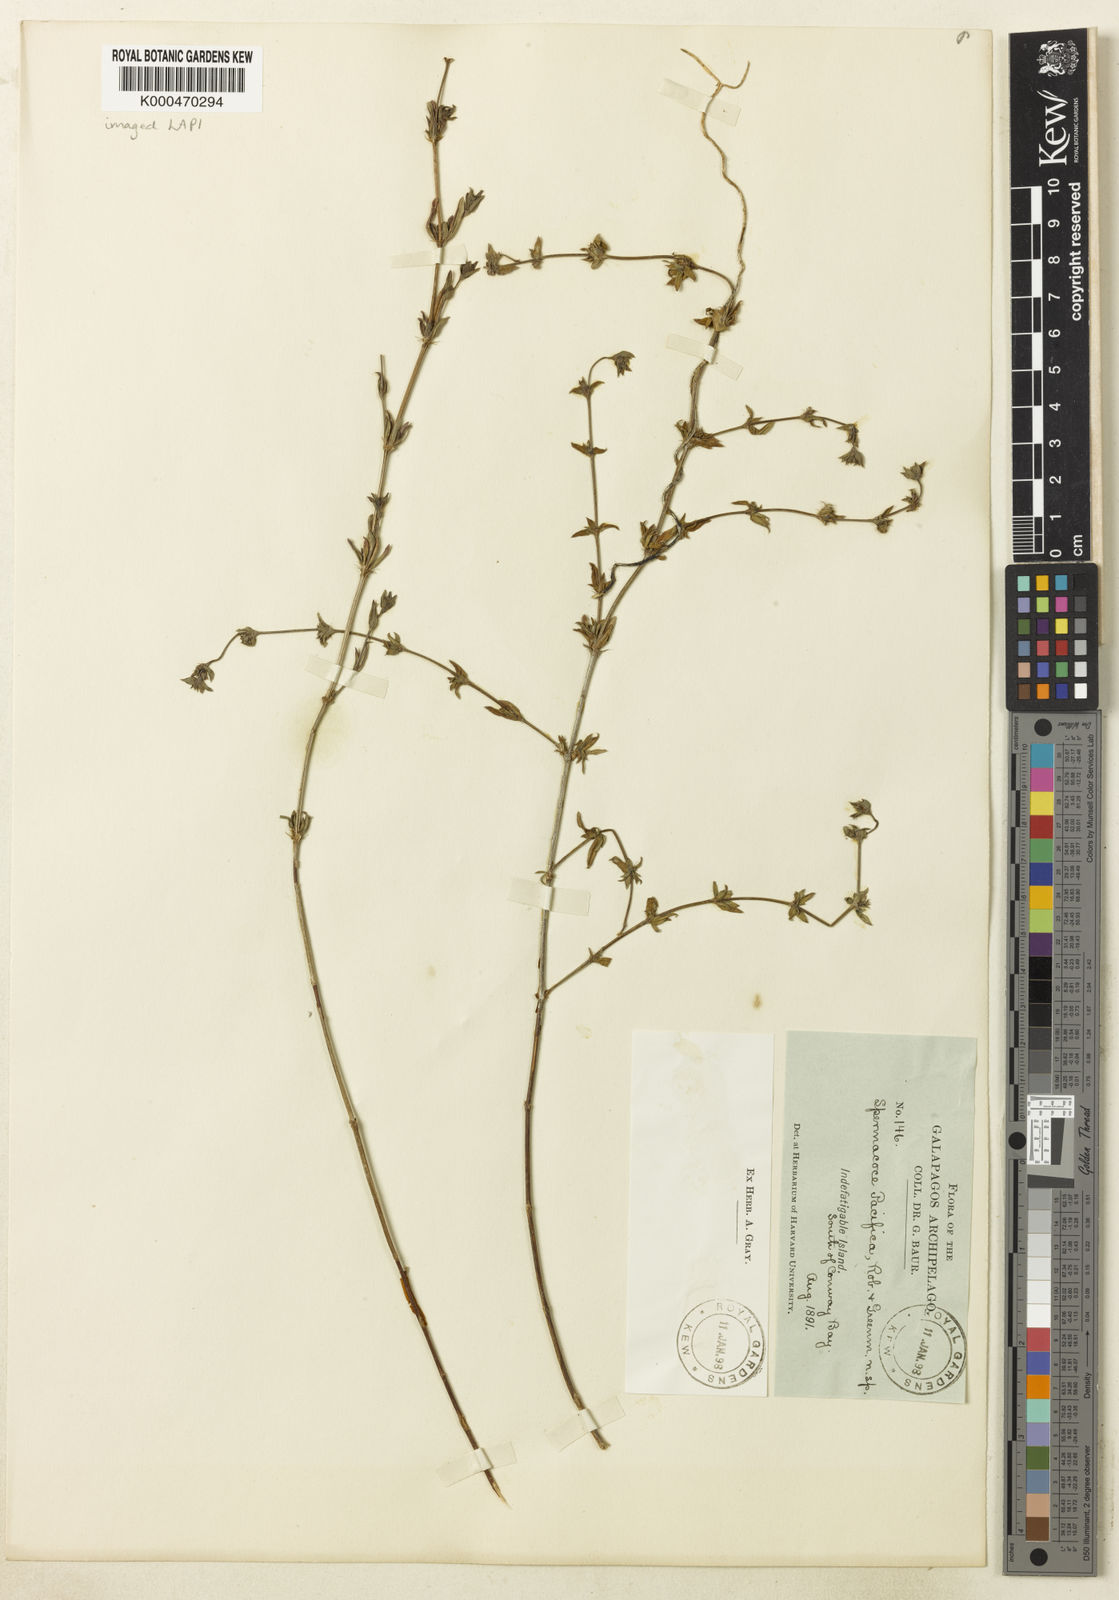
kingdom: Plantae
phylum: Tracheophyta
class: Magnoliopsida
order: Gentianales
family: Rubiaceae
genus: Spermacoce
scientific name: Spermacoce dispersa
